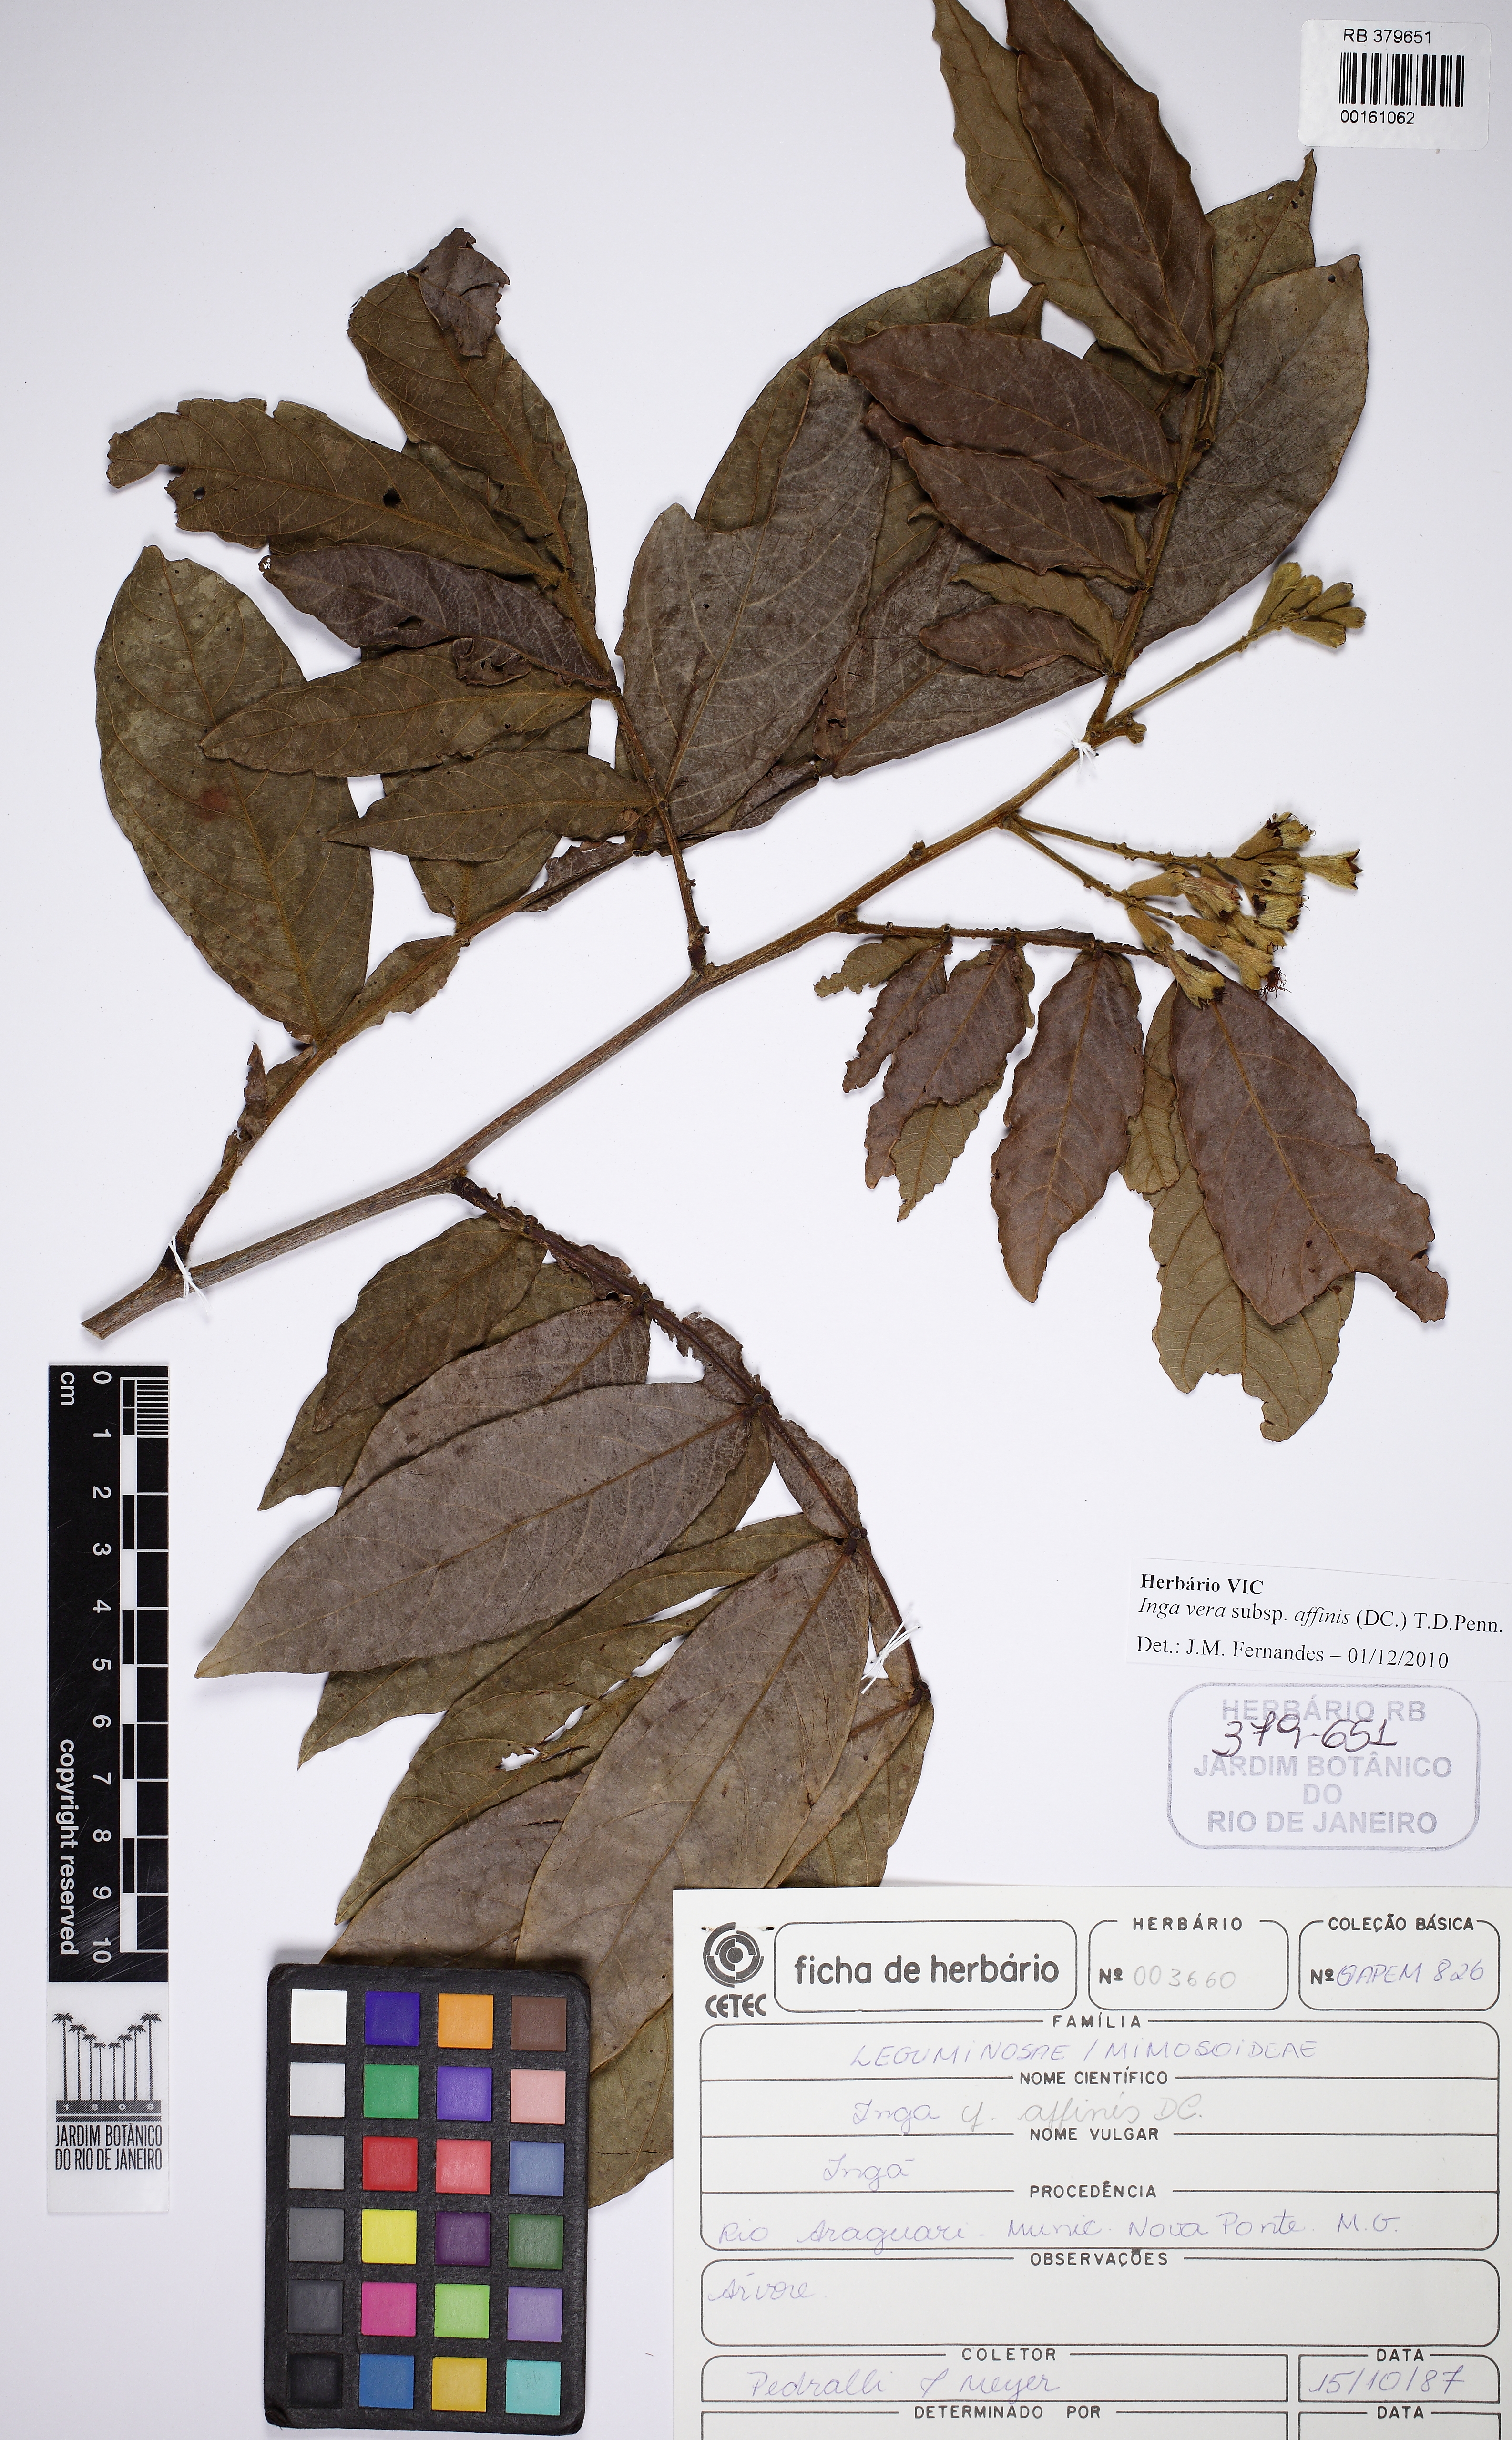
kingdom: Plantae
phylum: Tracheophyta
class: Magnoliopsida
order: Fabales
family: Fabaceae
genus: Inga
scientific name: Inga affinis
